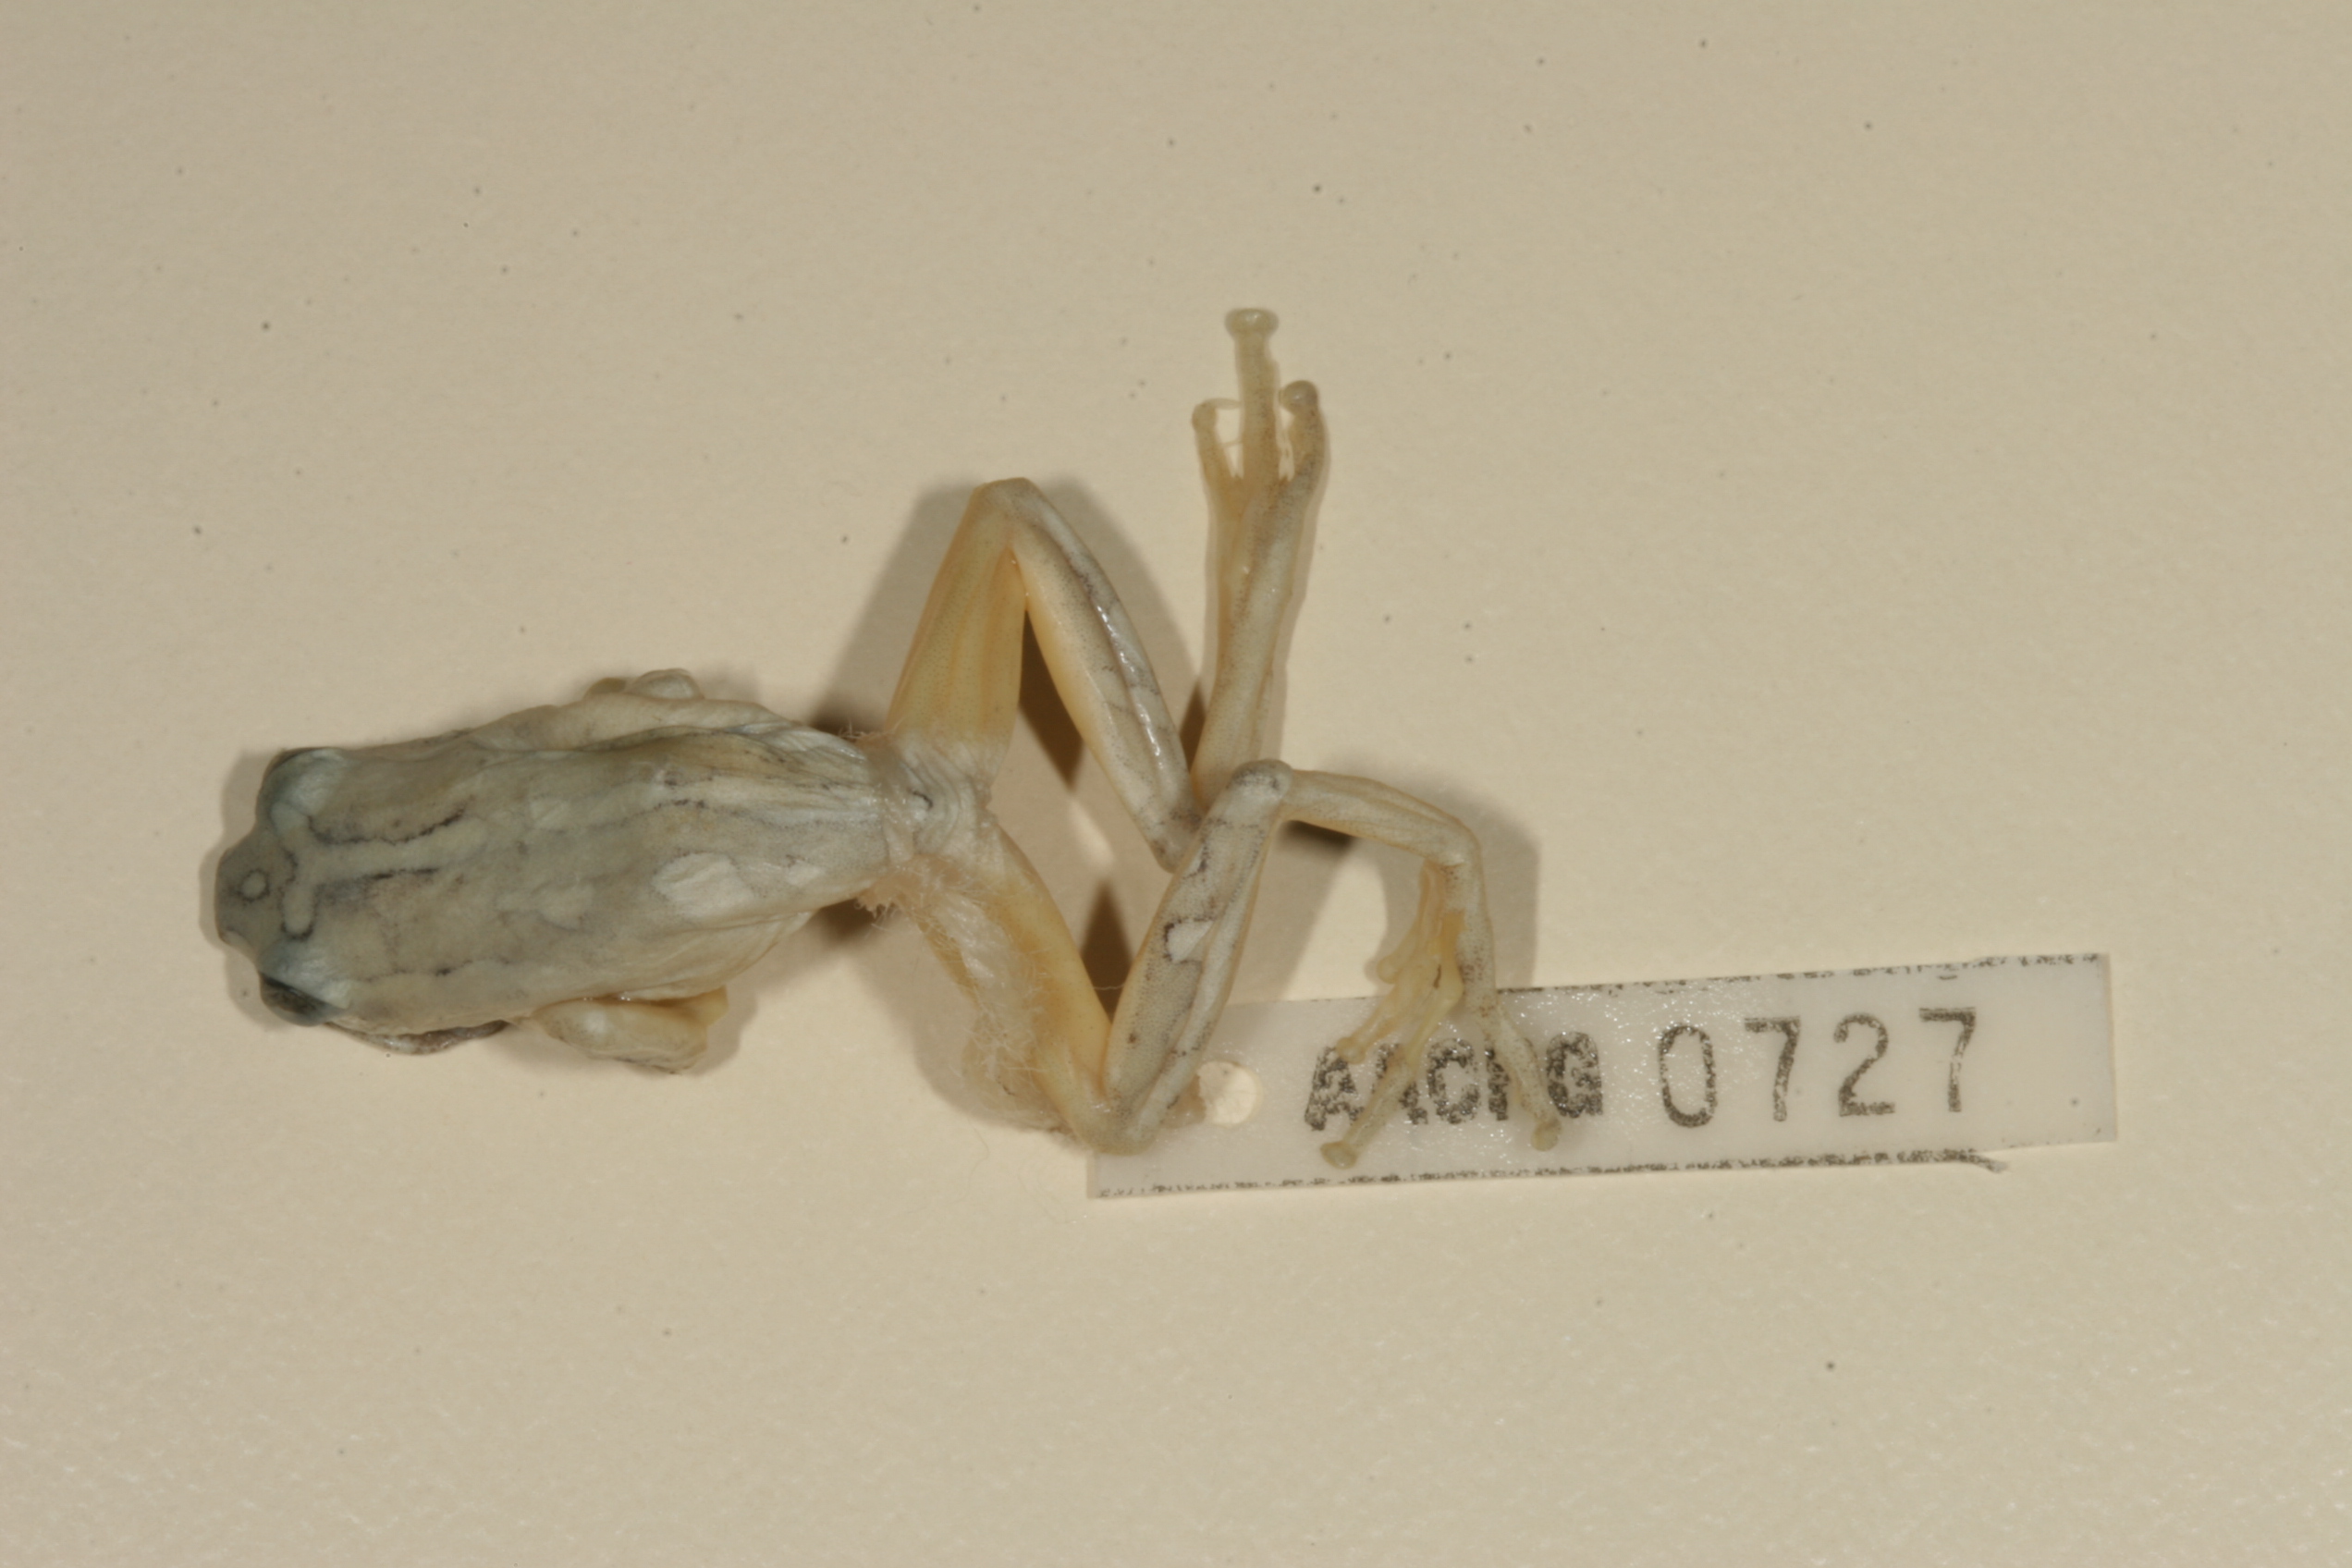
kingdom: Animalia
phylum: Chordata
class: Amphibia
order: Anura
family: Hyperoliidae
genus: Hyperolius
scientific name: Hyperolius marmoratus
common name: Painted reed frog
